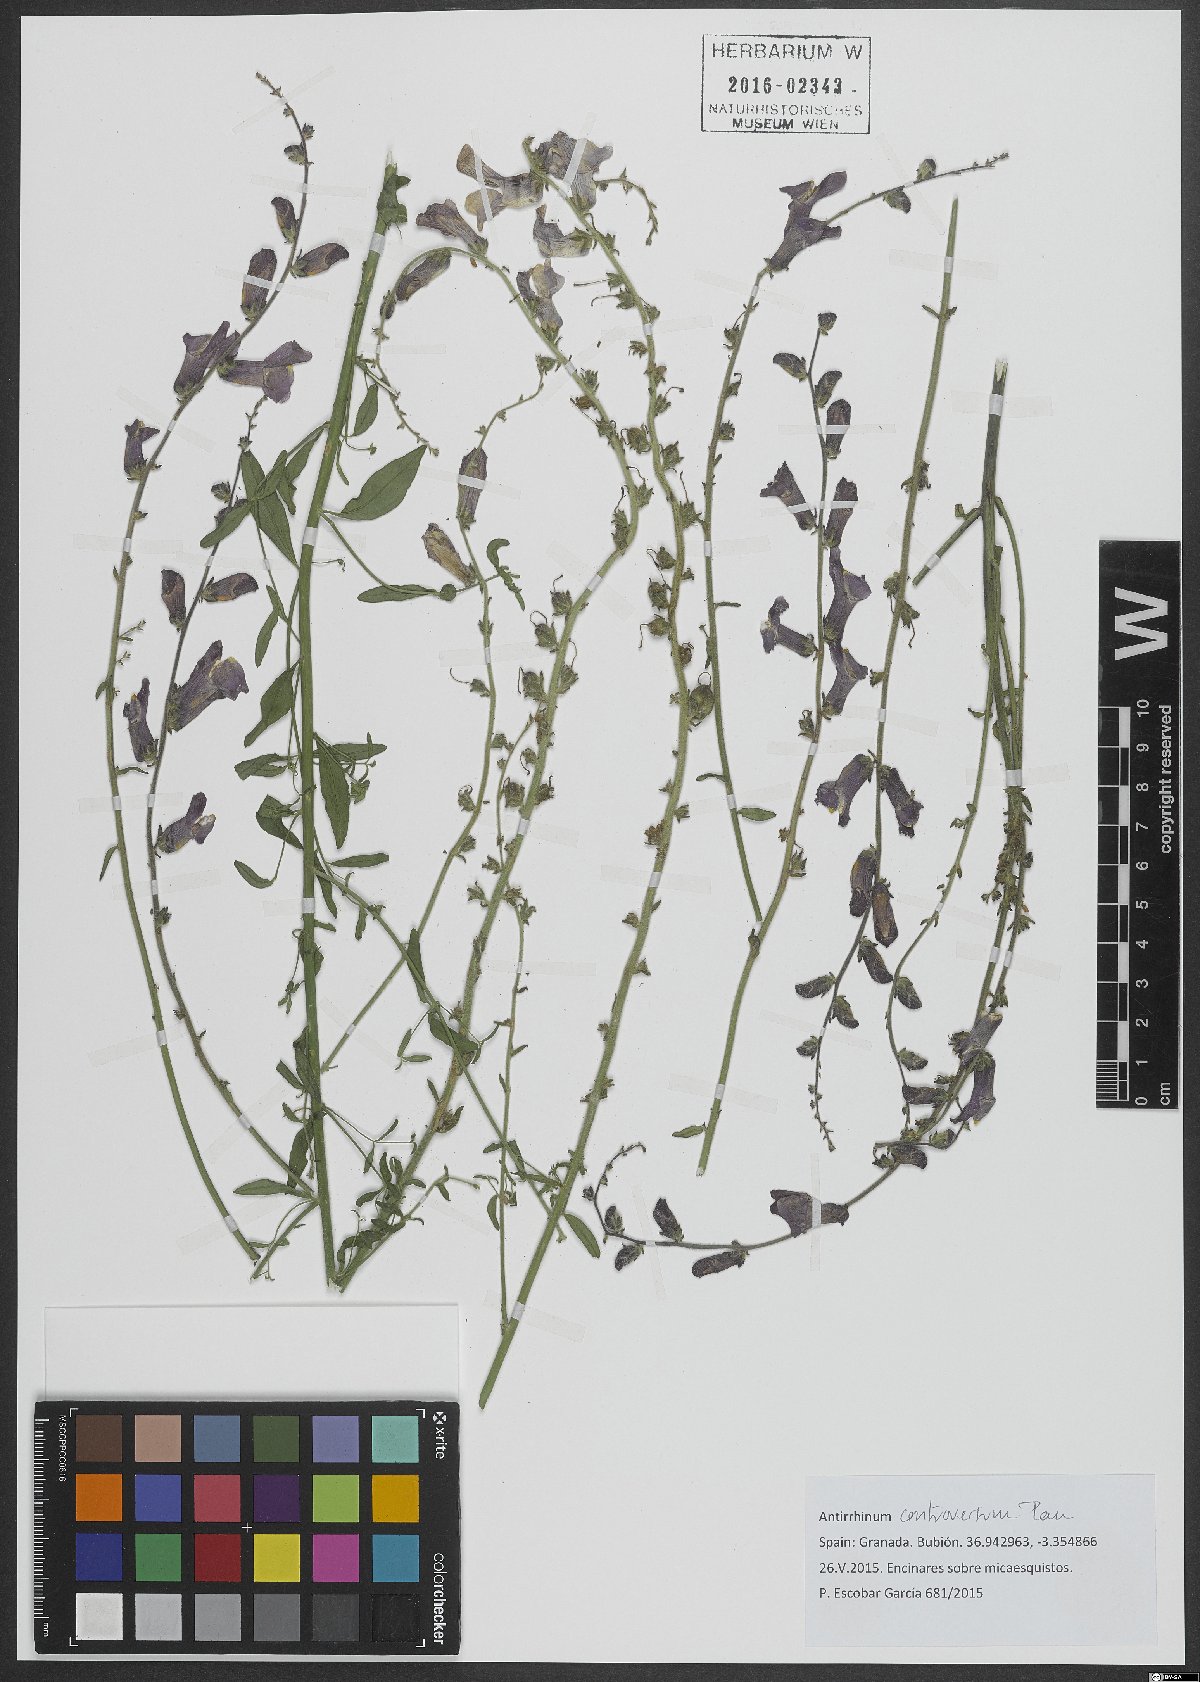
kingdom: Plantae
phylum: Tracheophyta
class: Magnoliopsida
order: Lamiales
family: Plantaginaceae
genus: Antirrhinum
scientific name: Antirrhinum controversum
